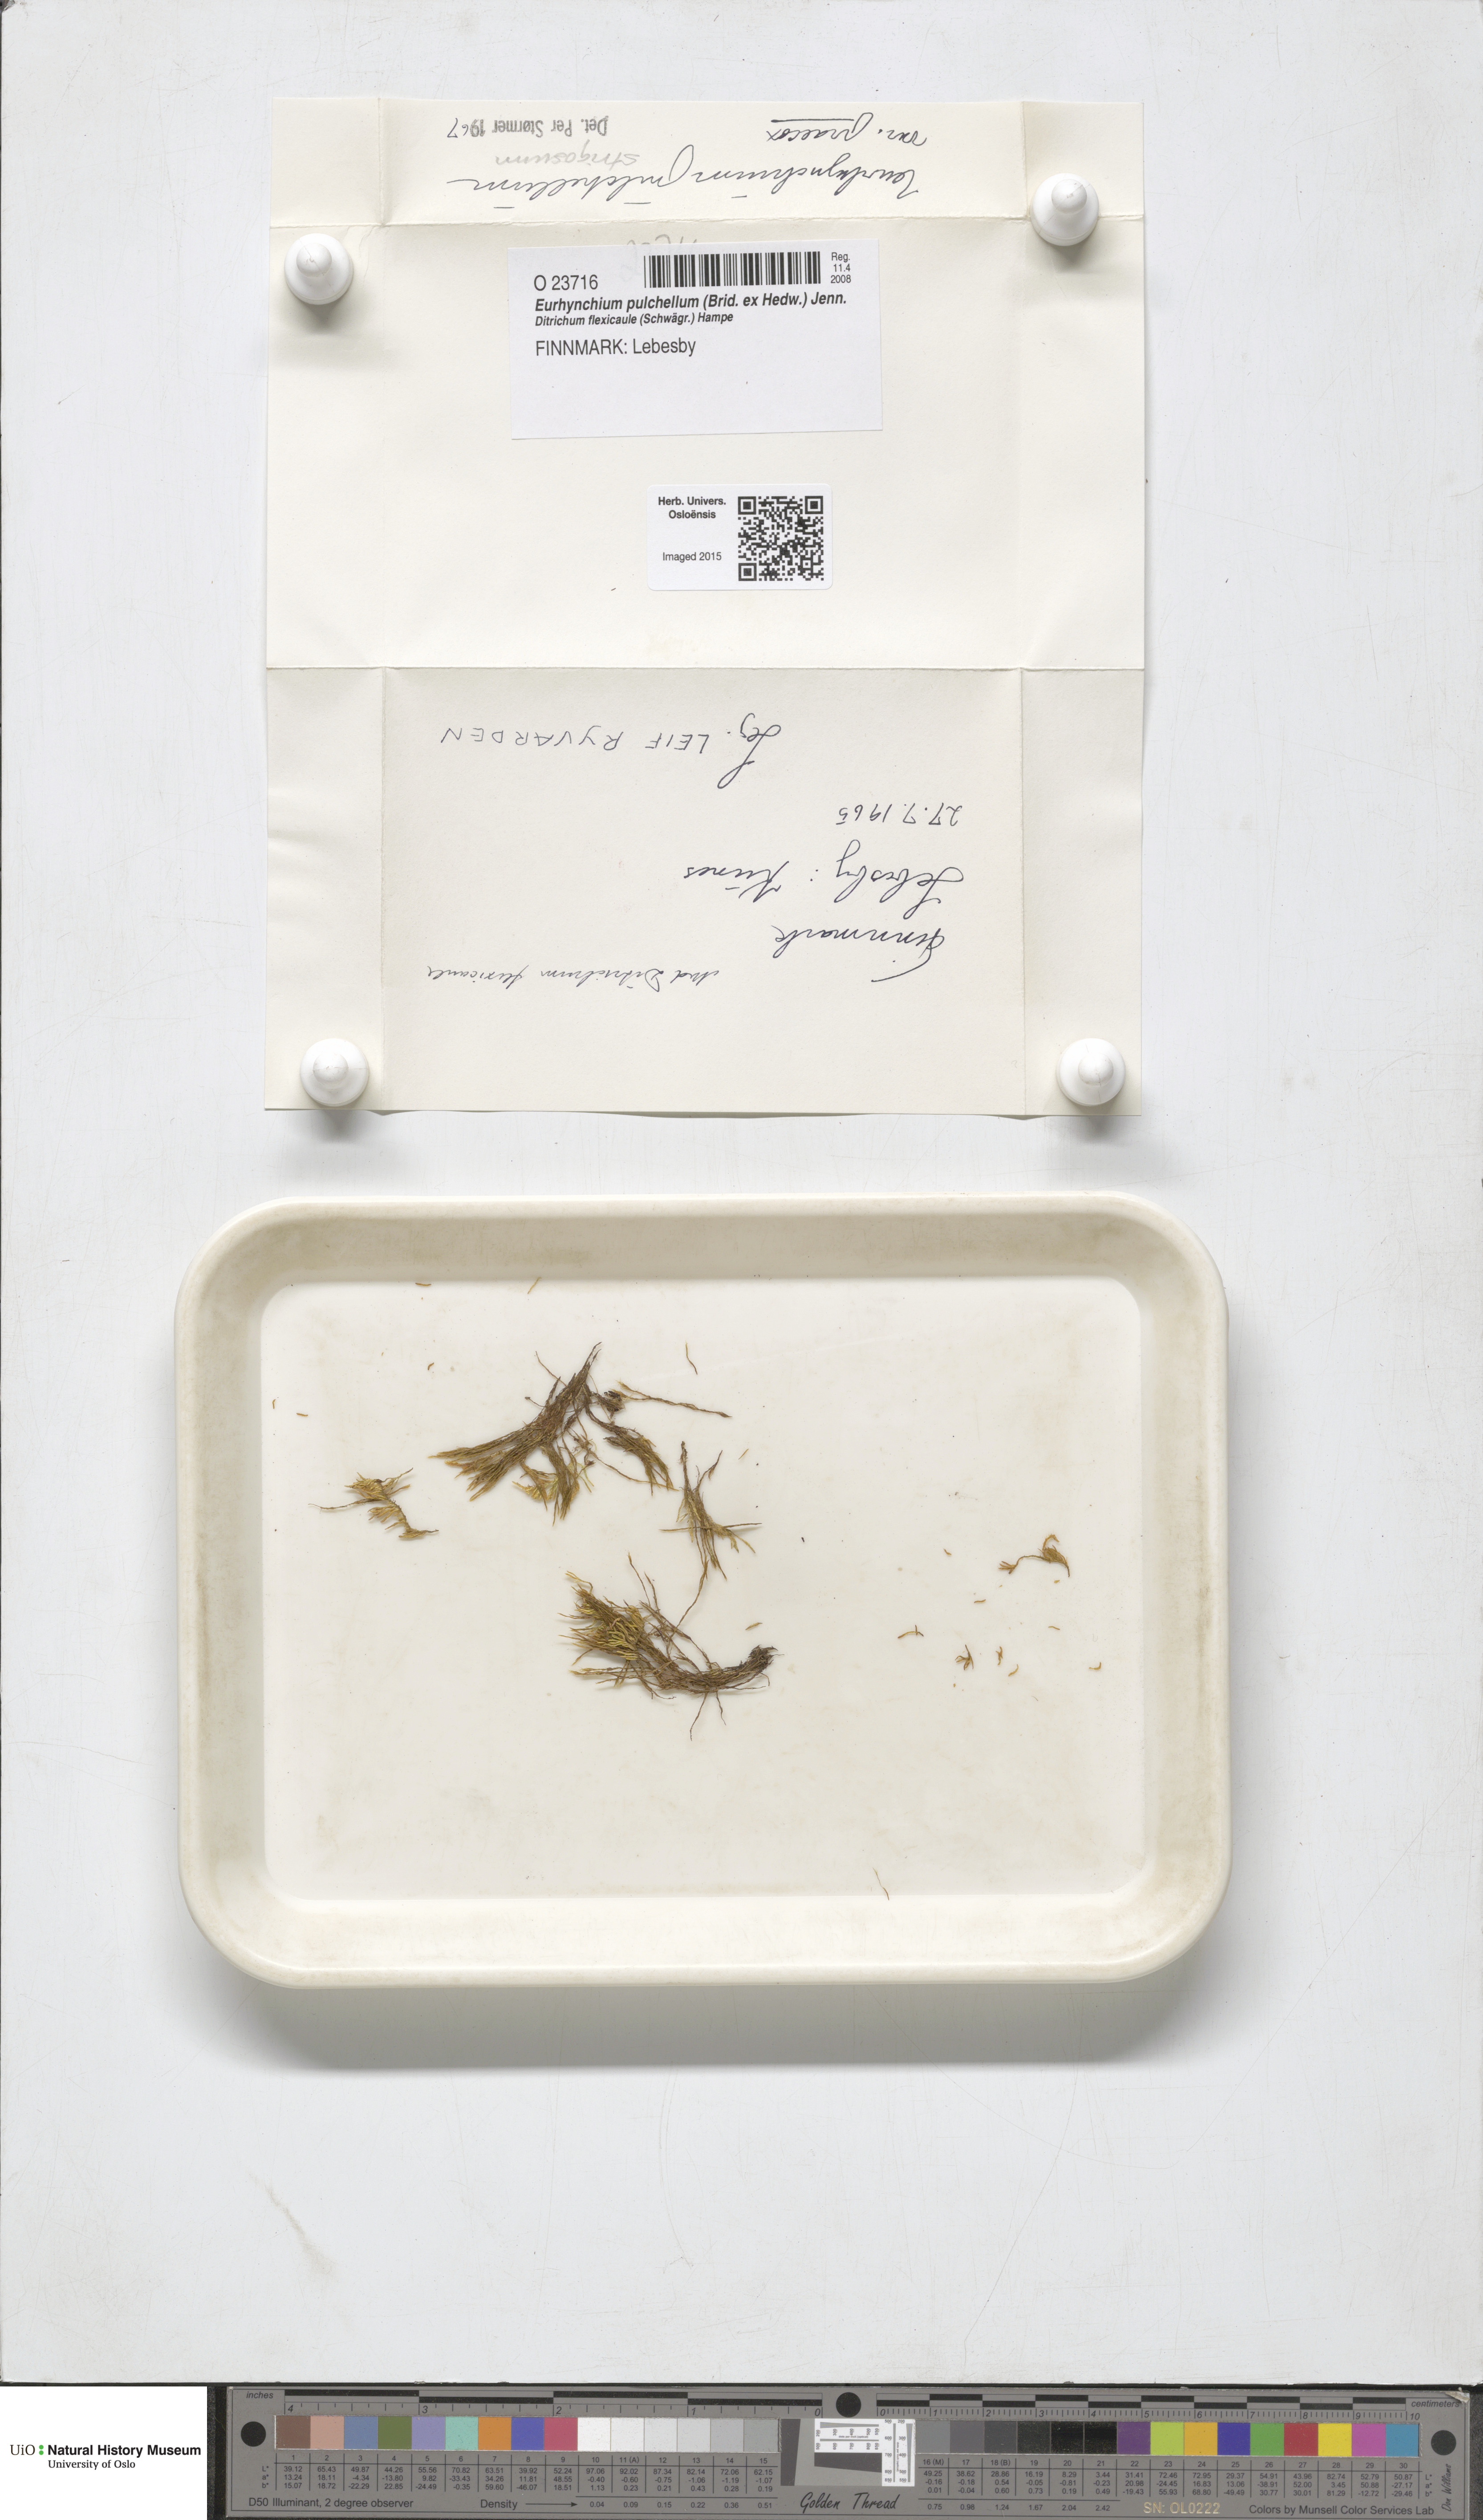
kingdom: Plantae
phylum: Bryophyta
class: Bryopsida
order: Hypnales
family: Brachytheciaceae
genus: Eurhynchiastrum
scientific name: Eurhynchiastrum pulchellum
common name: Elegant beaked moss
